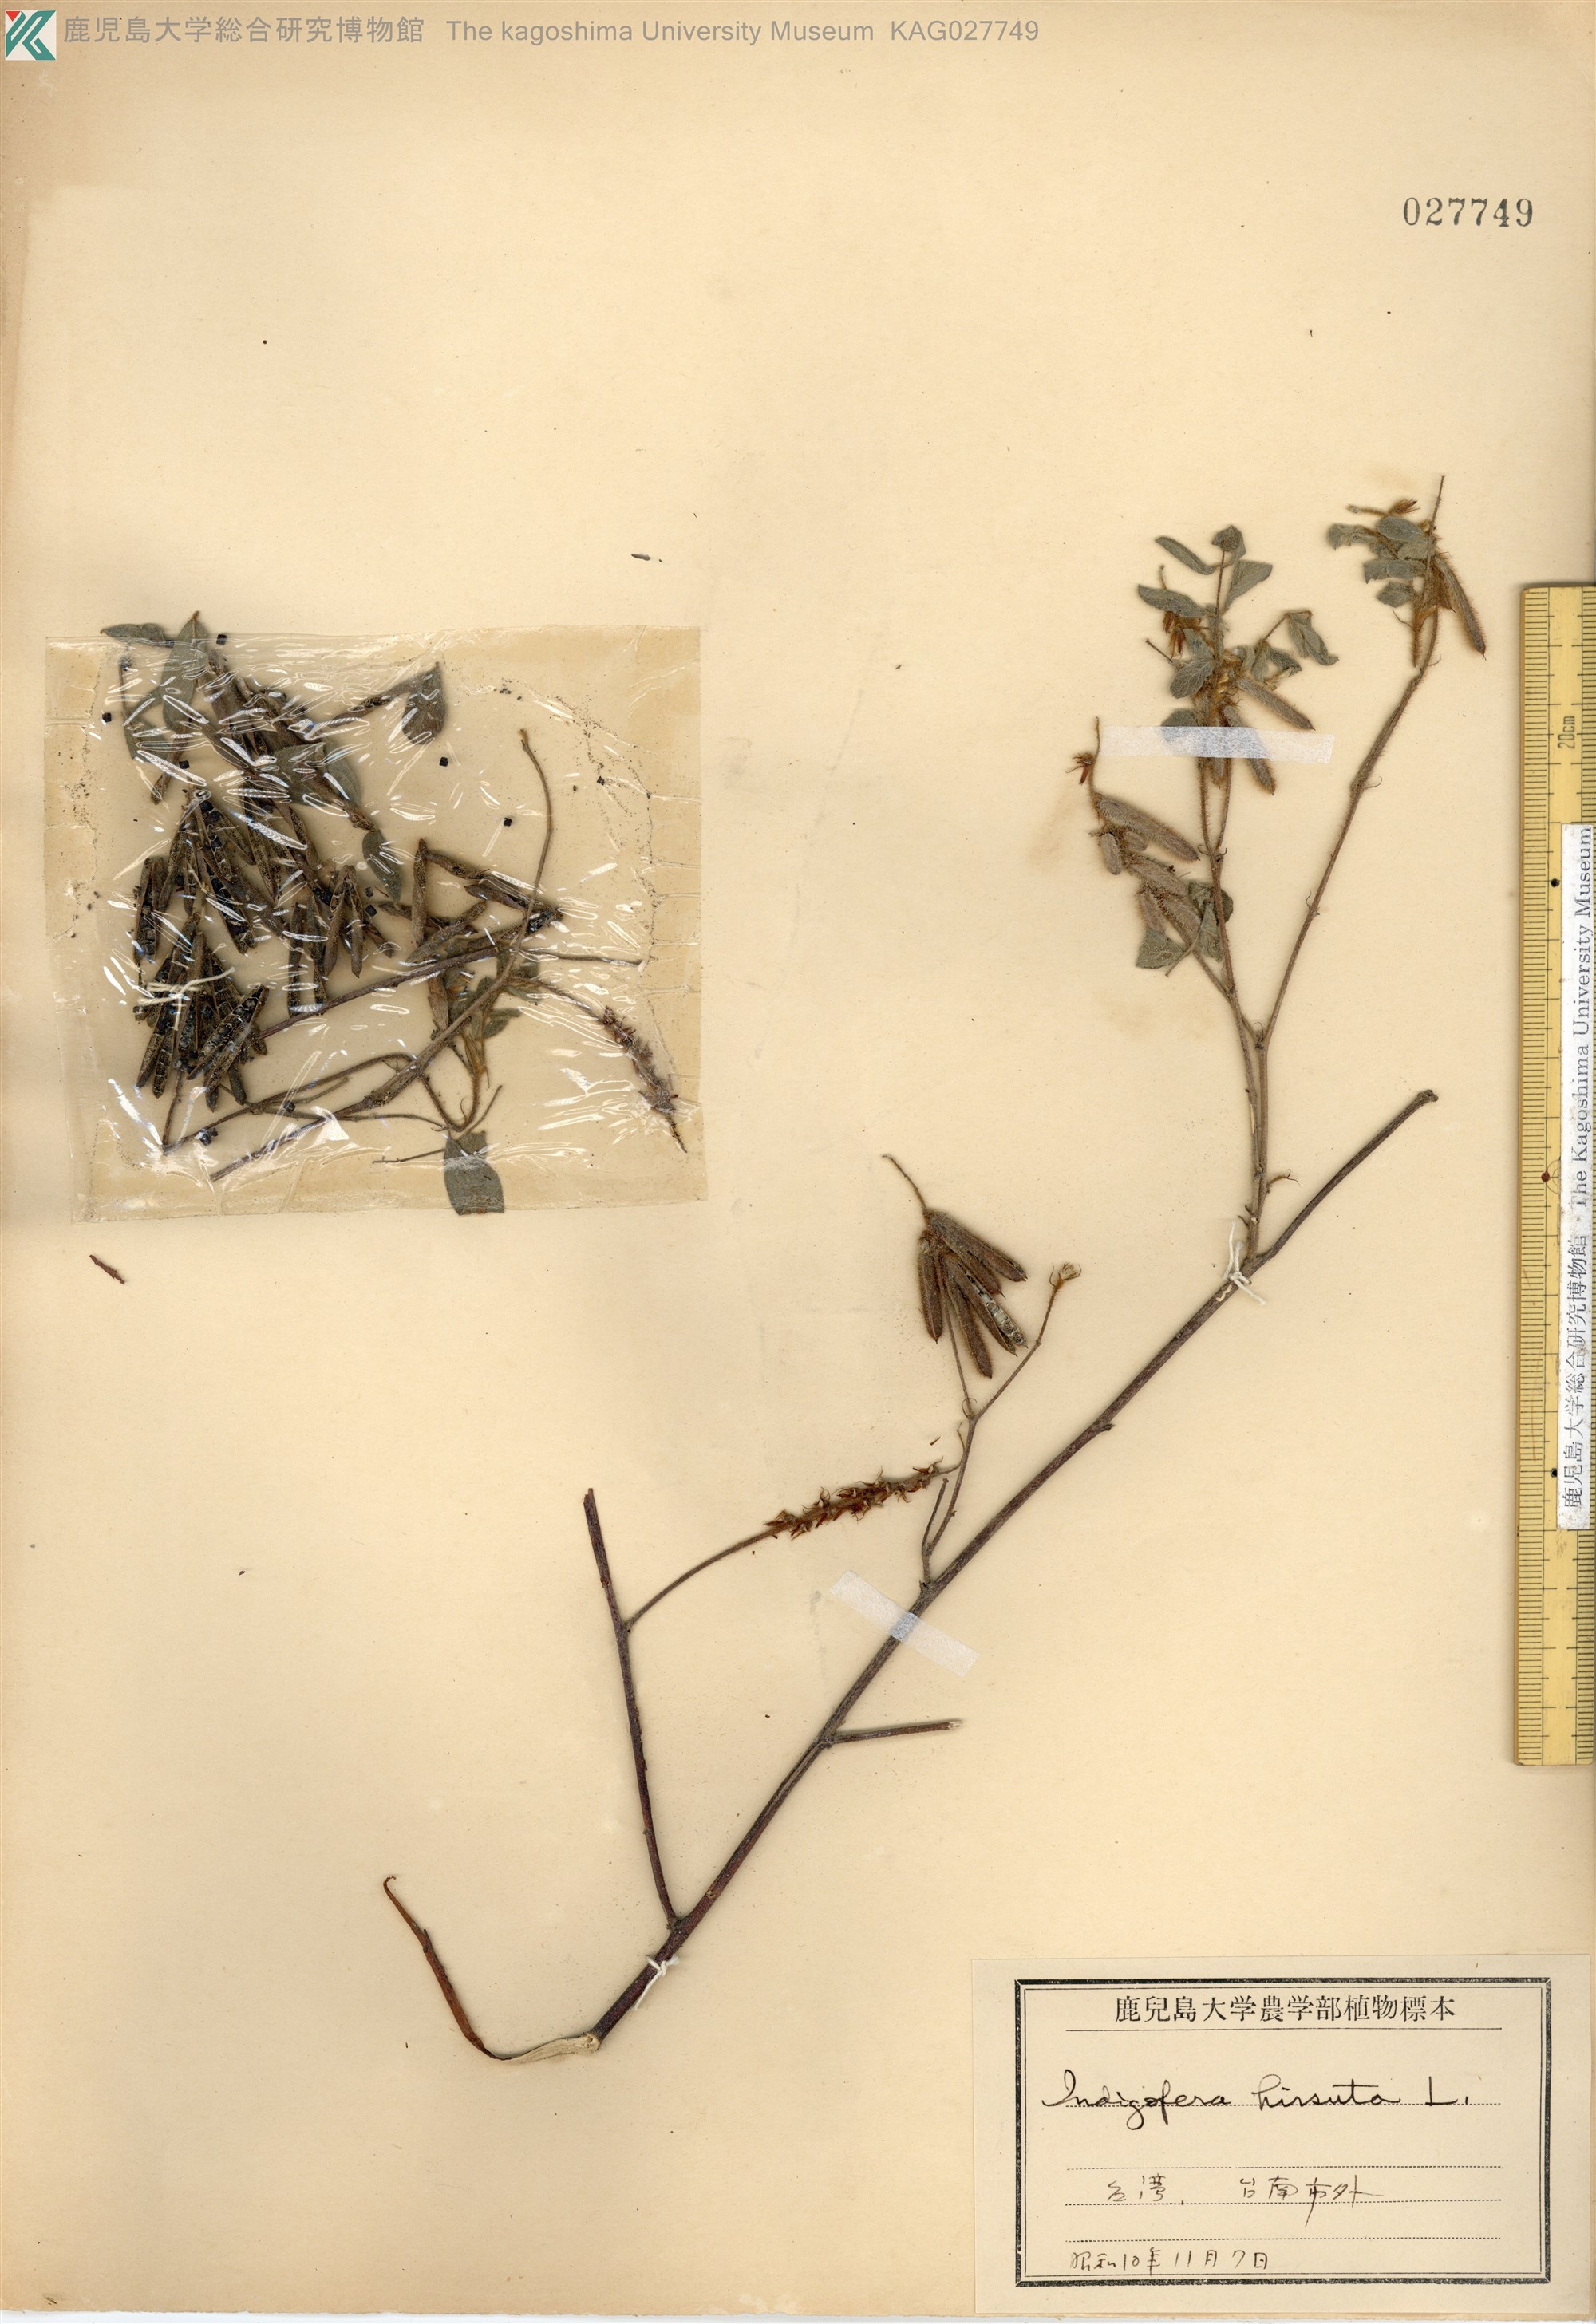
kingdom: Plantae
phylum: Tracheophyta
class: Magnoliopsida
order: Fabales
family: Fabaceae
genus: Indigofera
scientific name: Indigofera hirsuta
